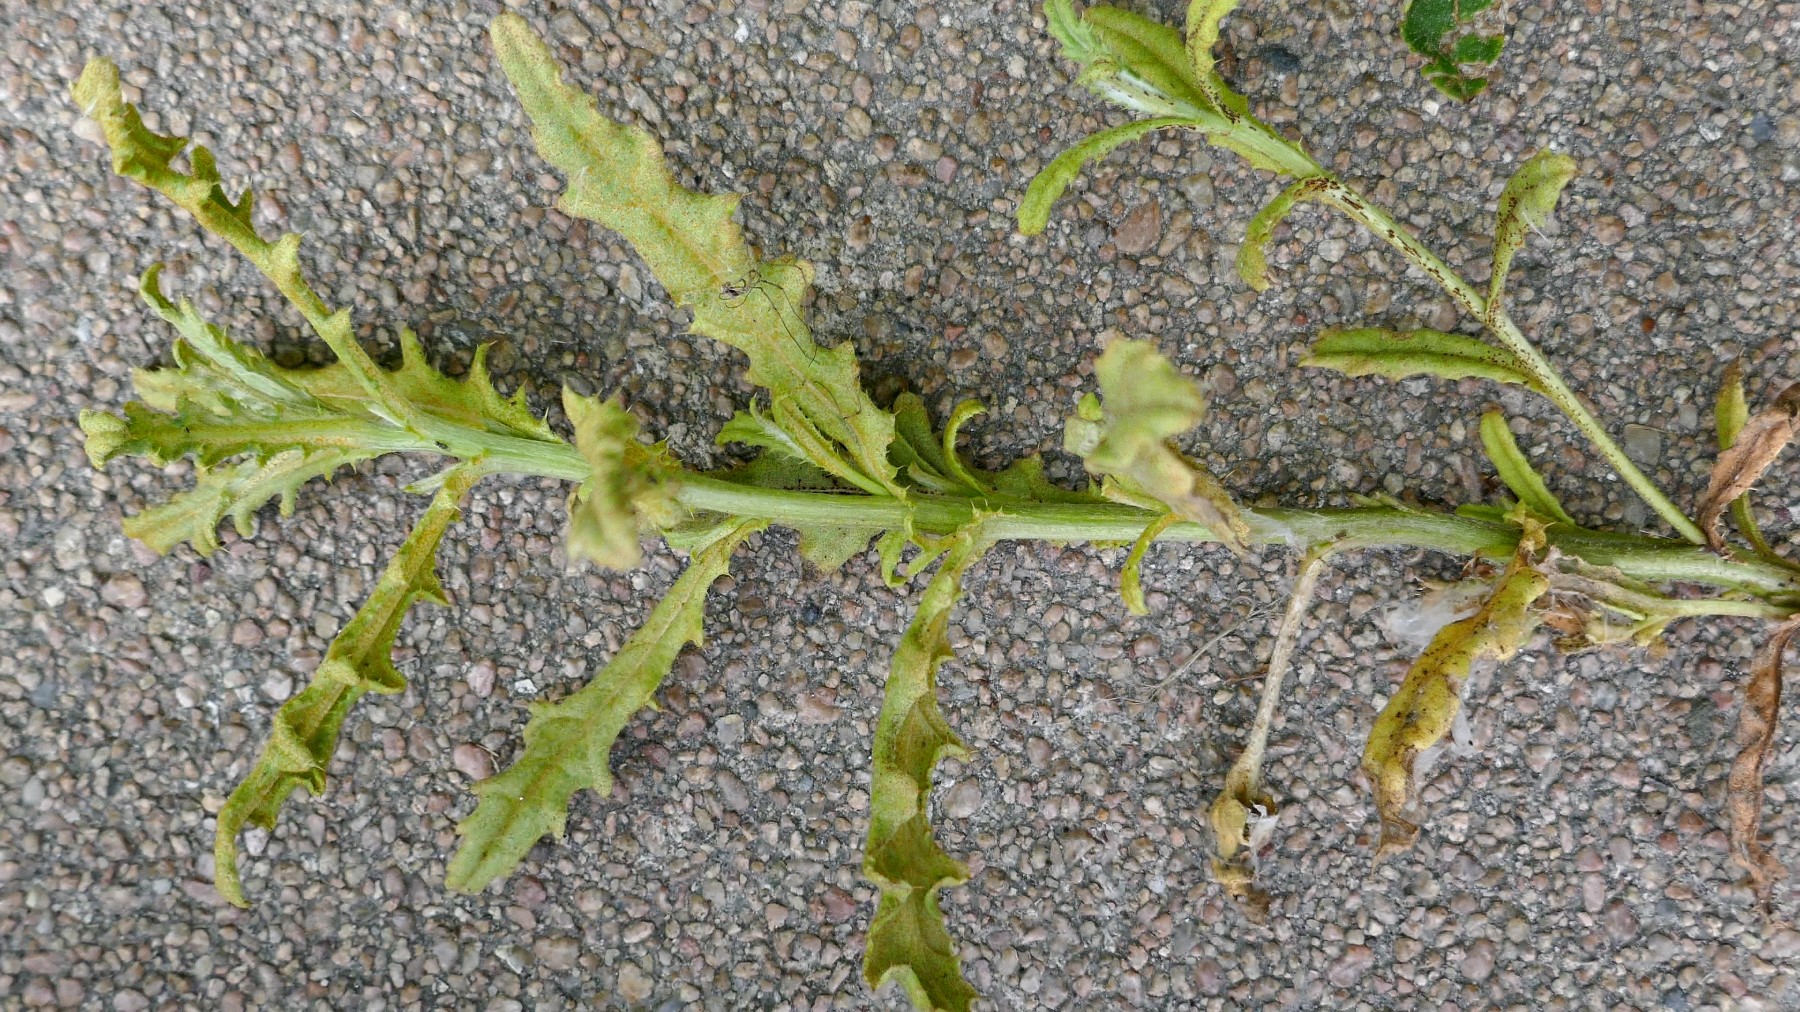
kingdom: Fungi
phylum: Basidiomycota
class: Pucciniomycetes
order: Pucciniales
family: Pucciniaceae
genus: Puccinia
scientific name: Puccinia suaveolens
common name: tidsel-tvecellerust
